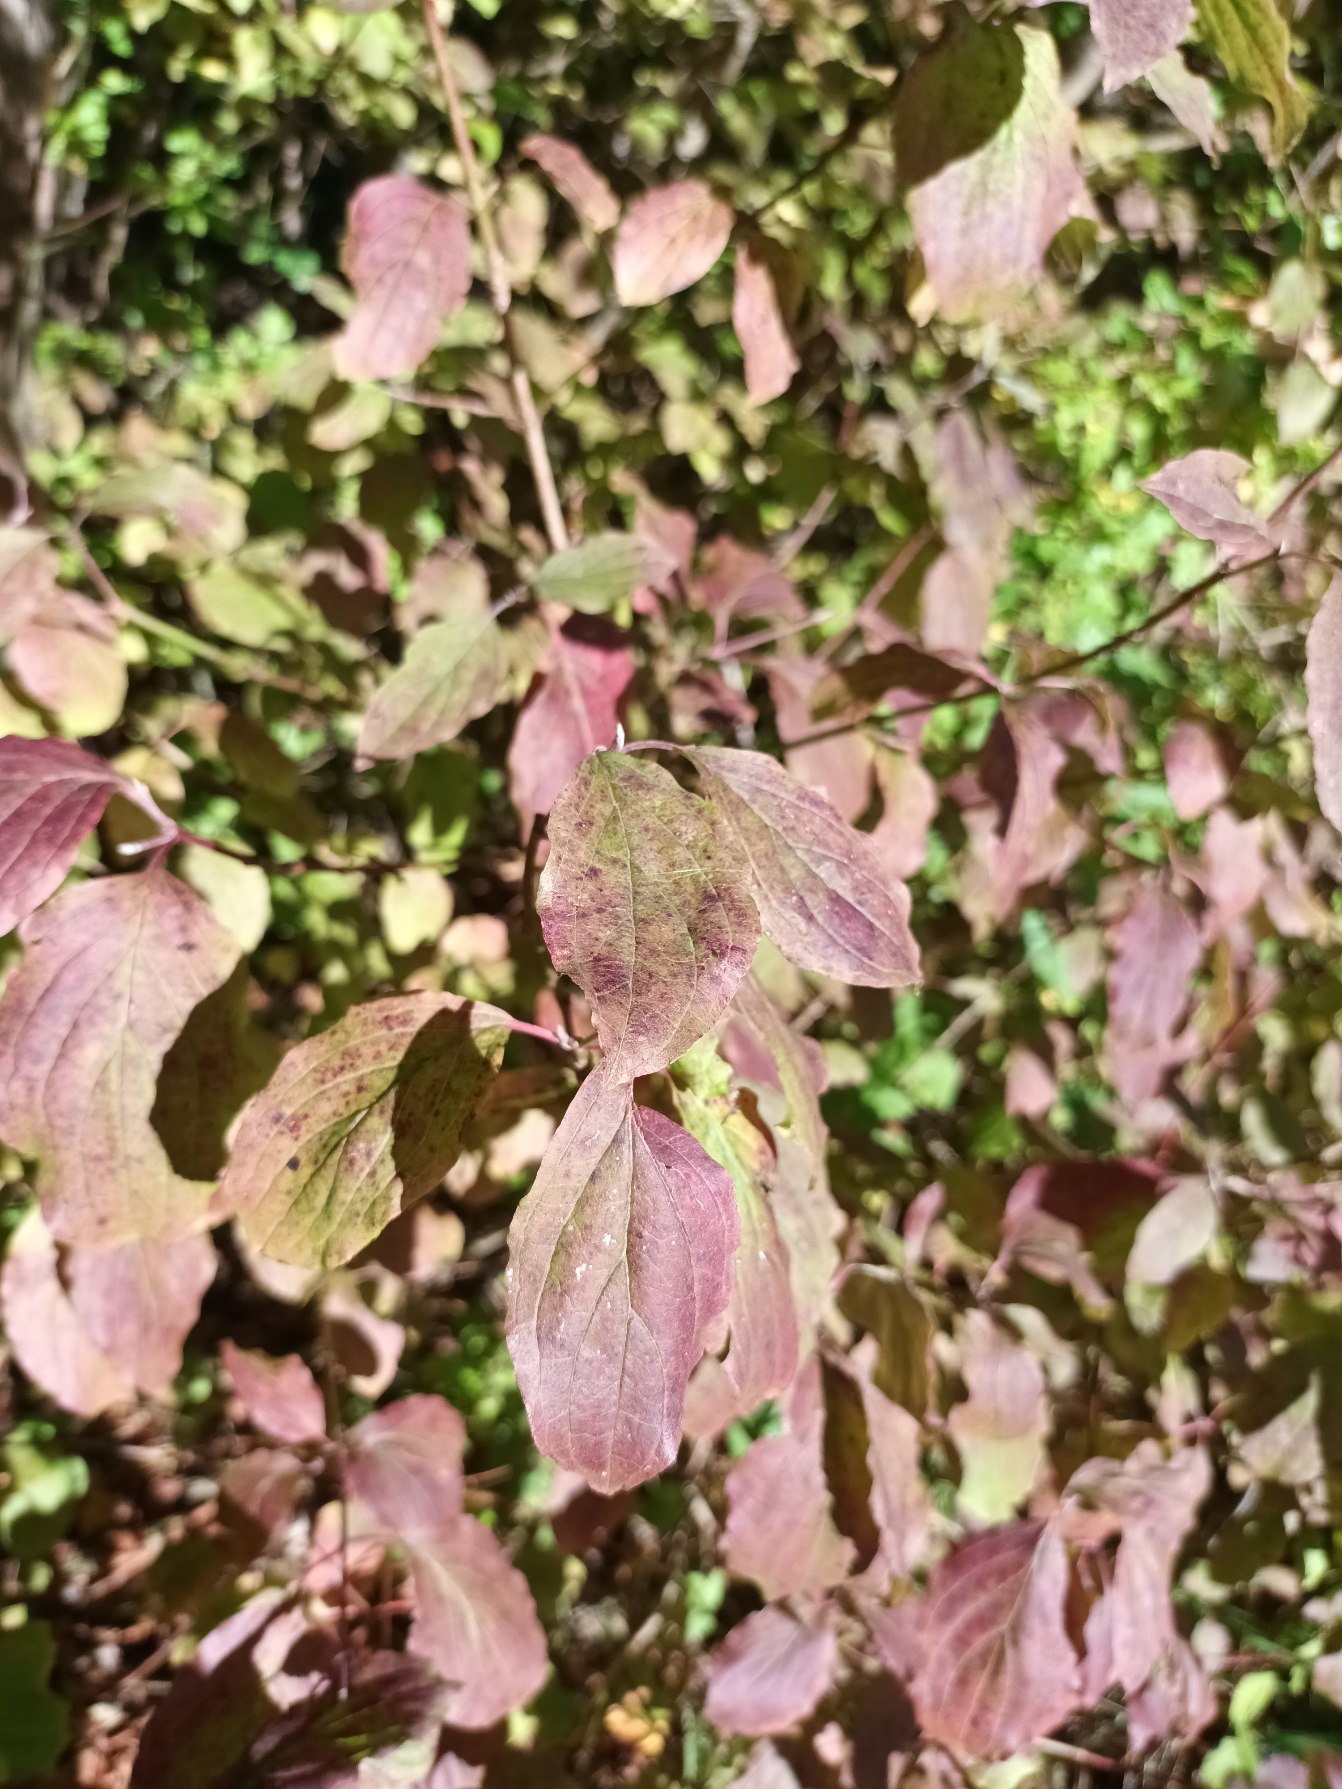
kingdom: Plantae
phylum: Tracheophyta
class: Magnoliopsida
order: Cornales
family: Cornaceae
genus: Cornus
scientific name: Cornus sanguinea
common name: Rød kornel
